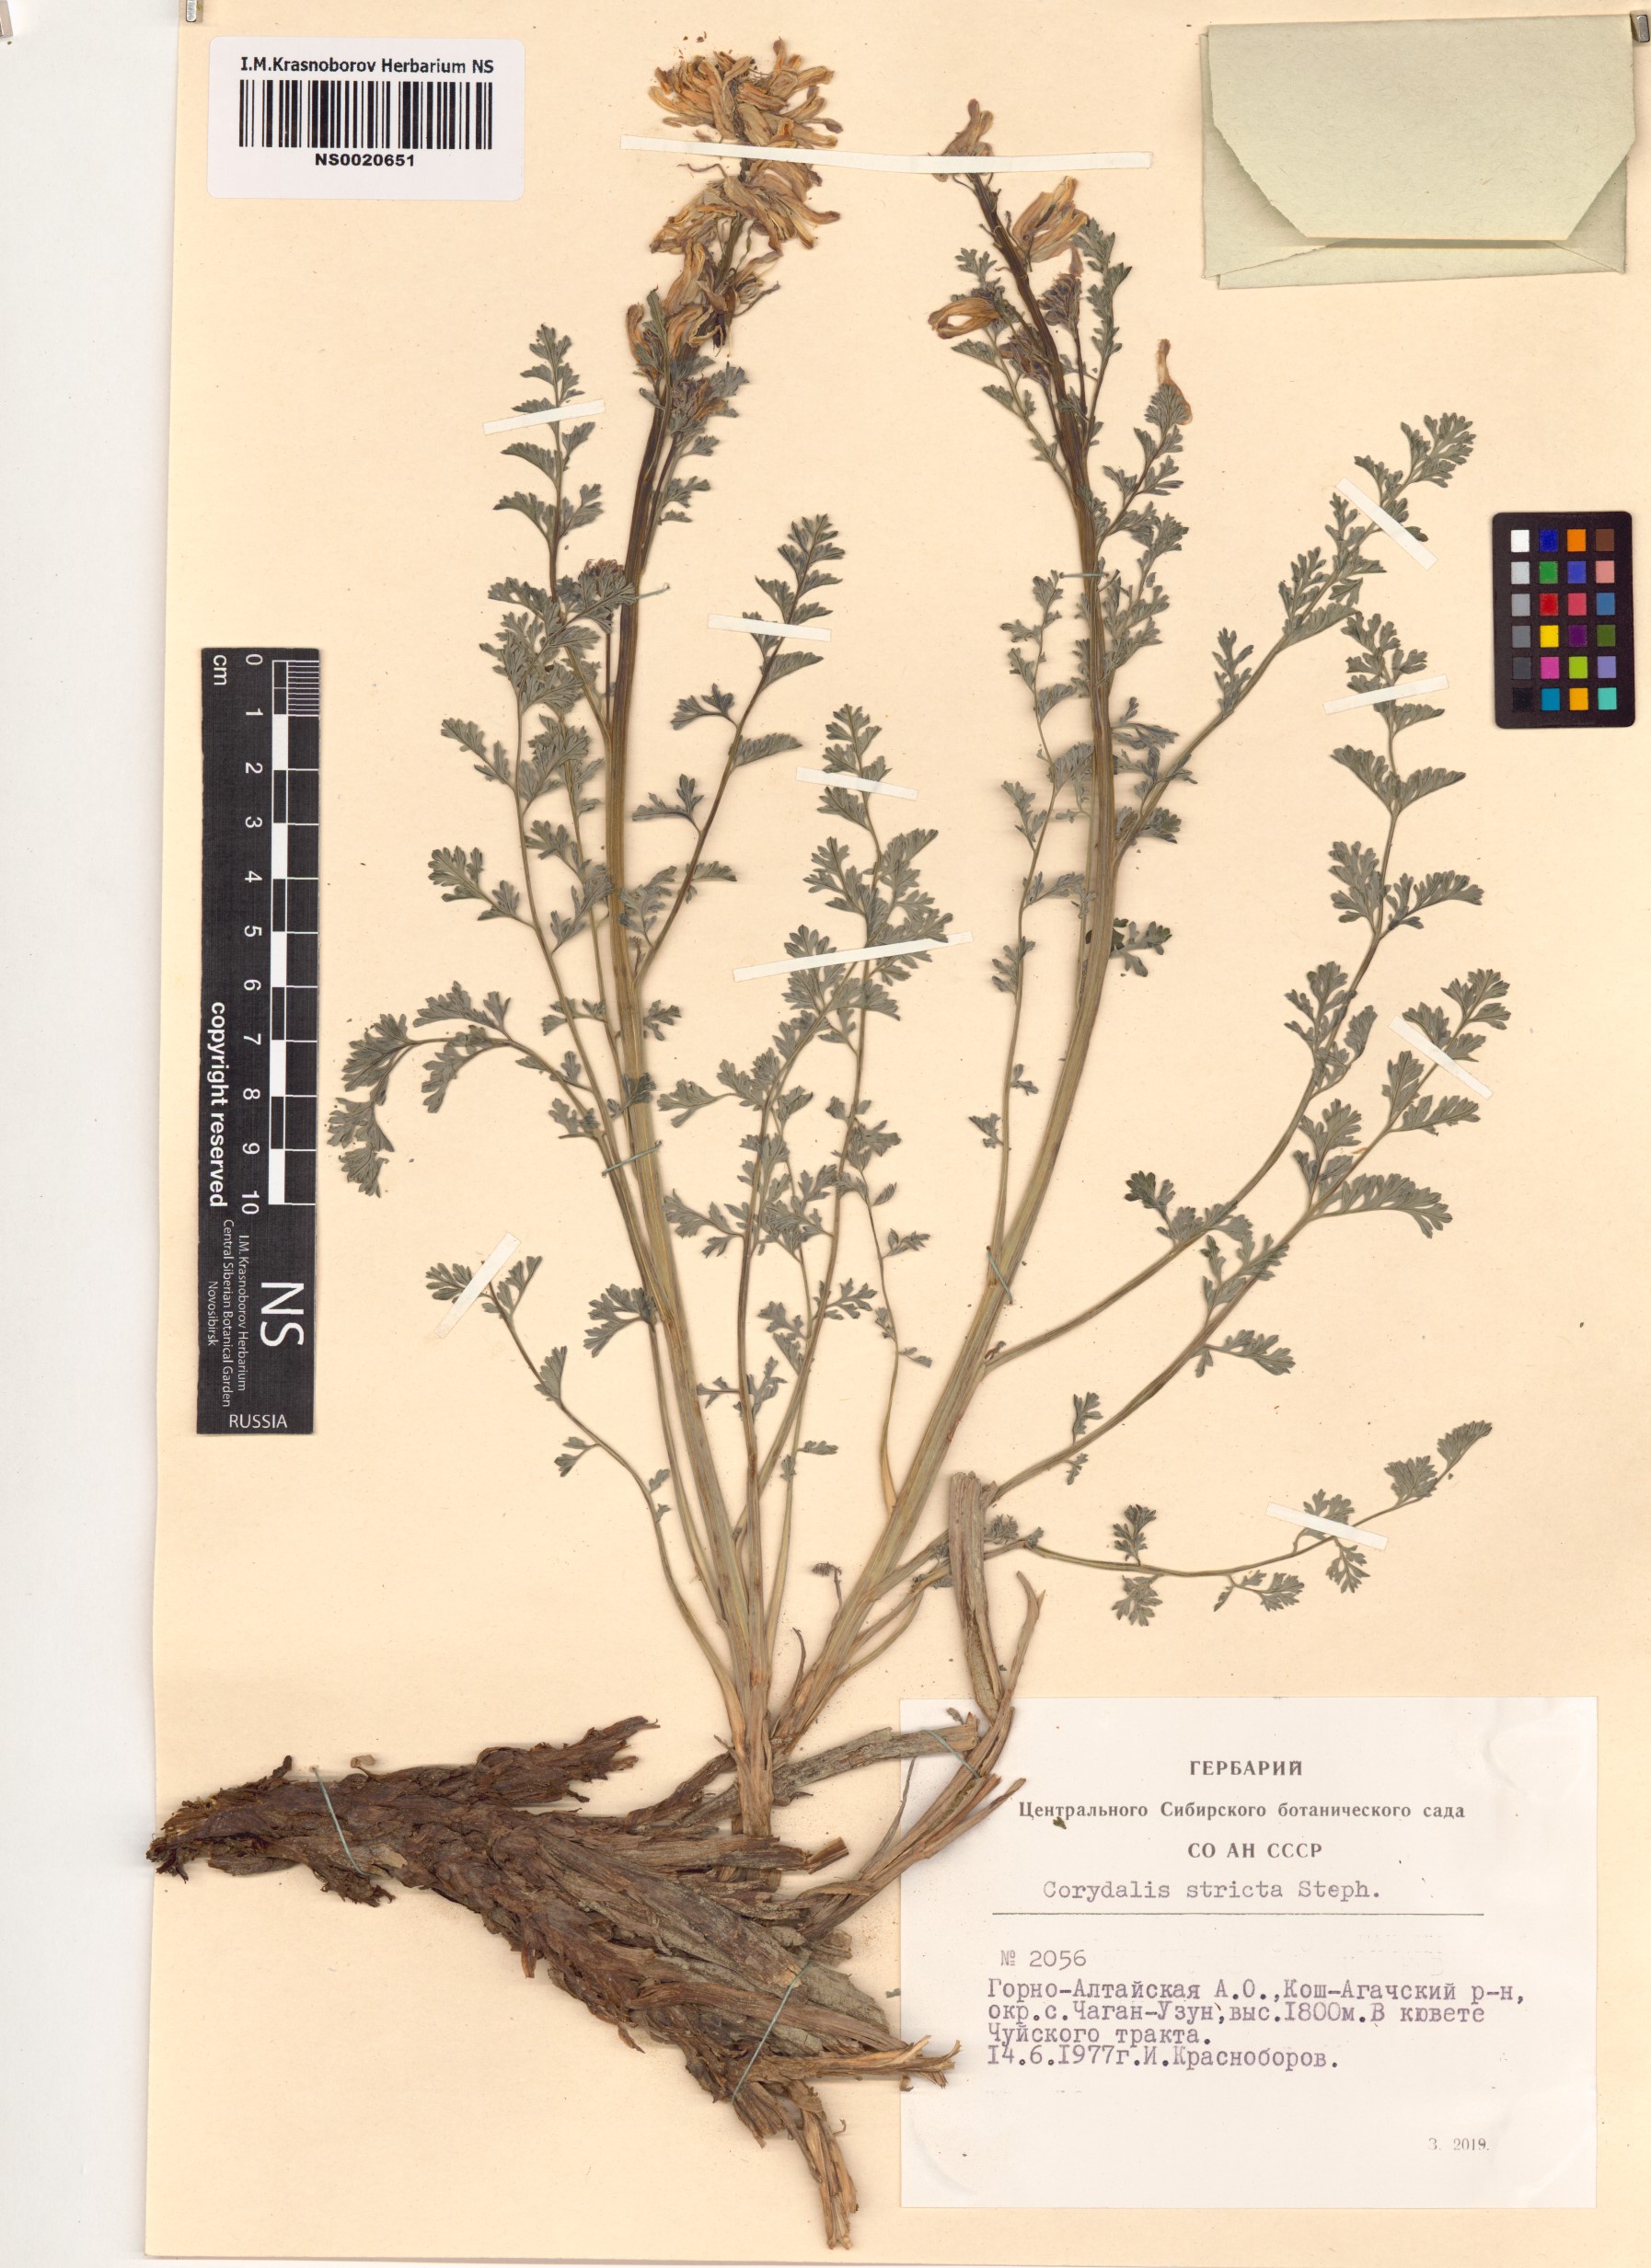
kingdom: Plantae
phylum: Tracheophyta
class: Magnoliopsida
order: Ranunculales
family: Papaveraceae
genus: Corydalis
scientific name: Corydalis stricta
